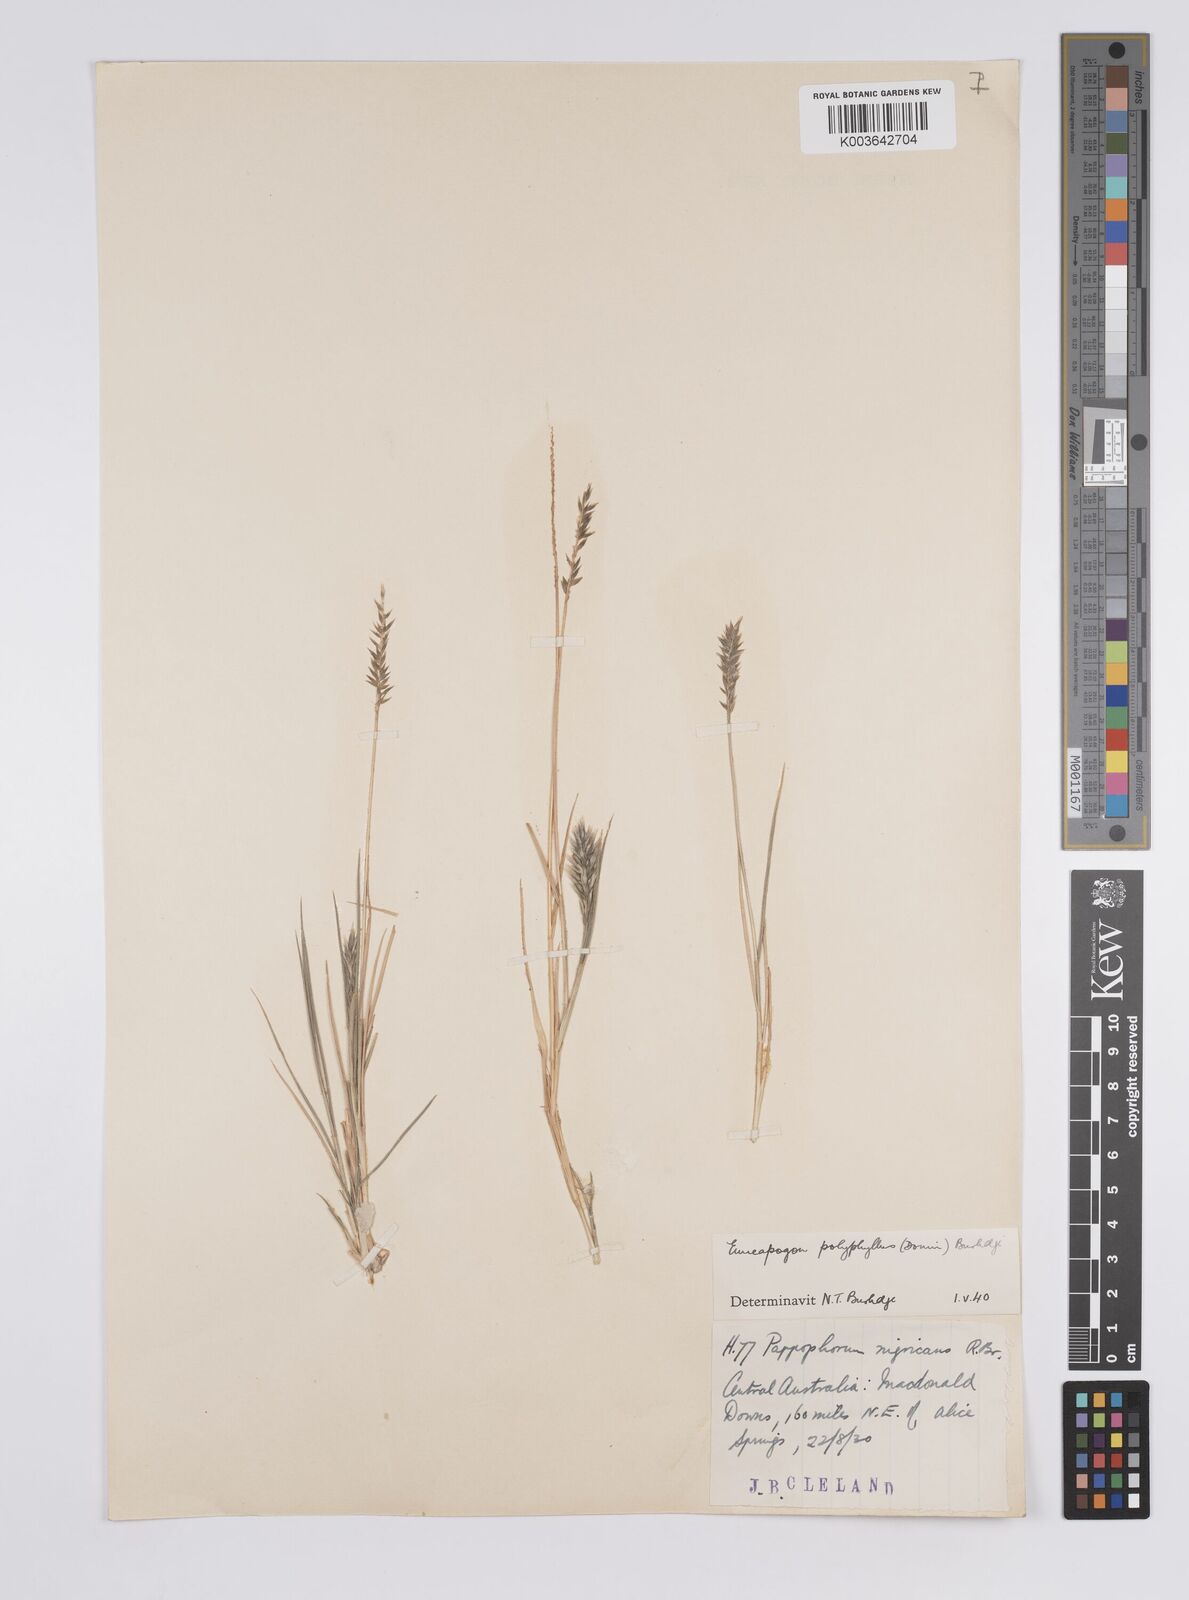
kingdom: Plantae
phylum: Tracheophyta
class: Liliopsida
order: Poales
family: Poaceae
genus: Enneapogon
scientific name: Enneapogon polyphyllus
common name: Leafy nineawn
